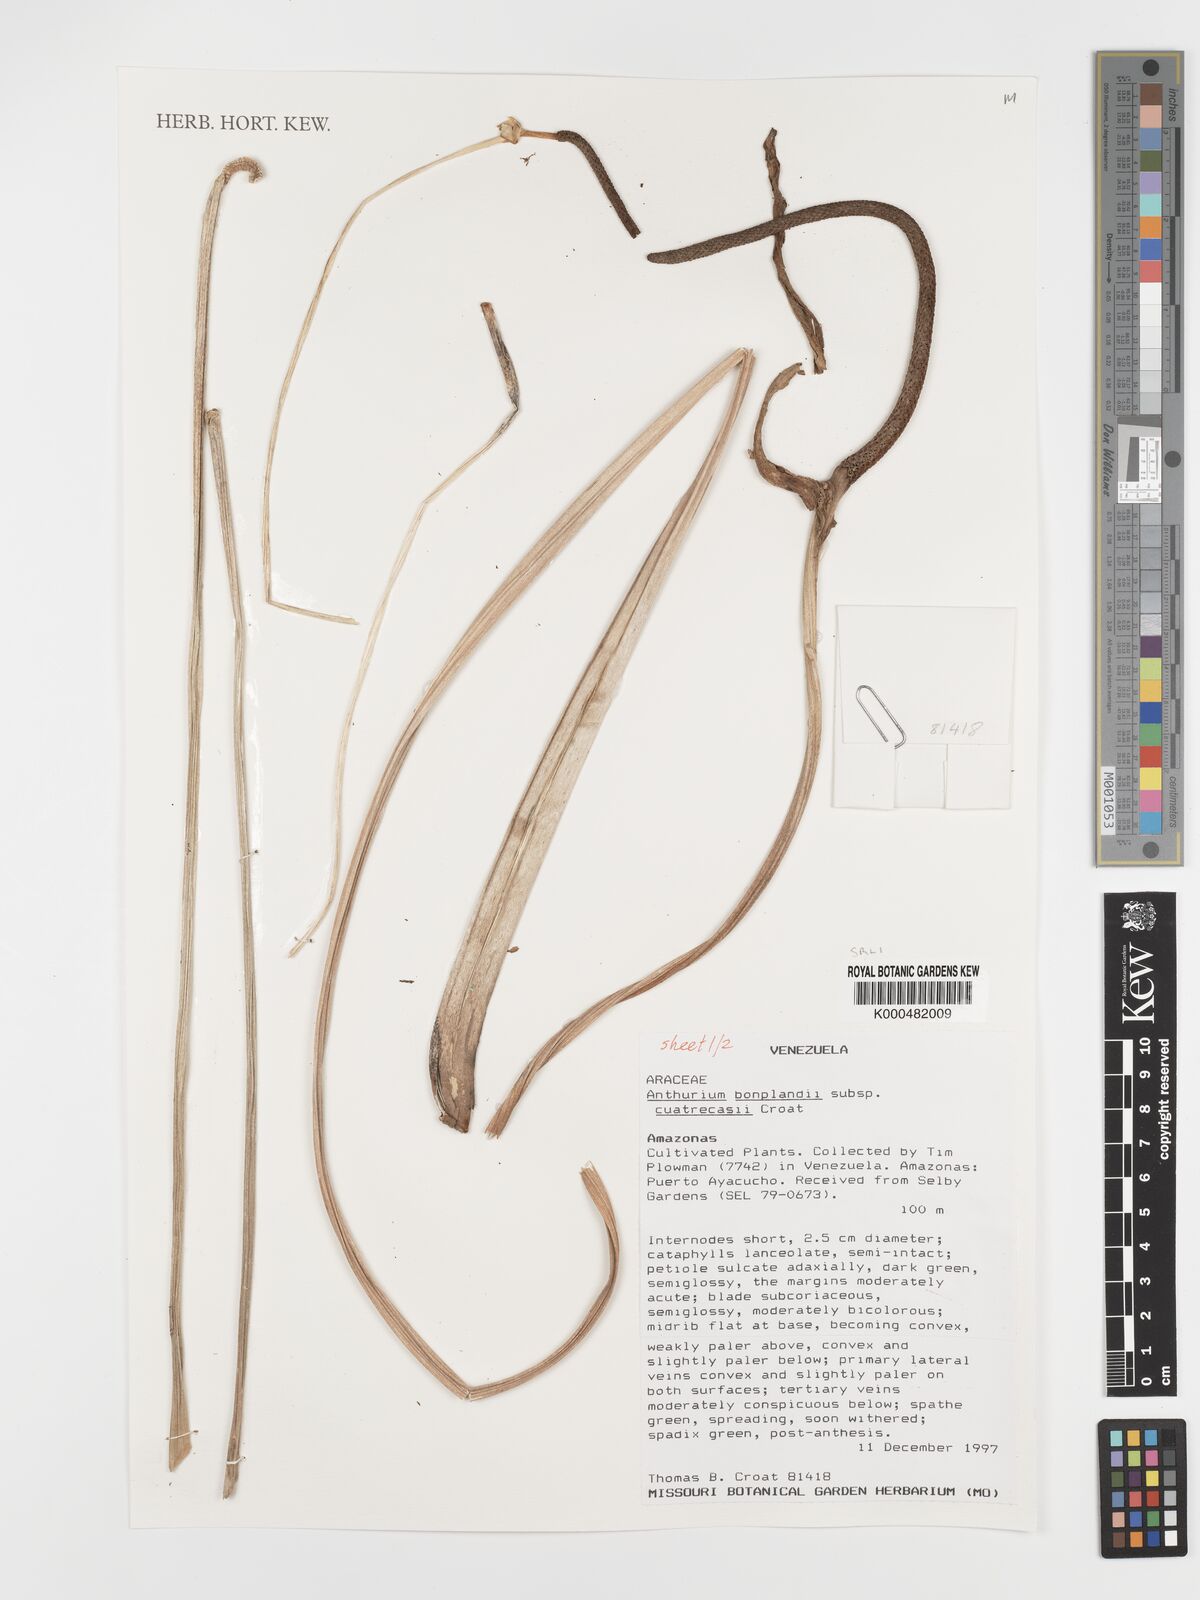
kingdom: Plantae
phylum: Tracheophyta
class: Liliopsida
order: Alismatales
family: Araceae
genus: Anthurium
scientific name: Anthurium
